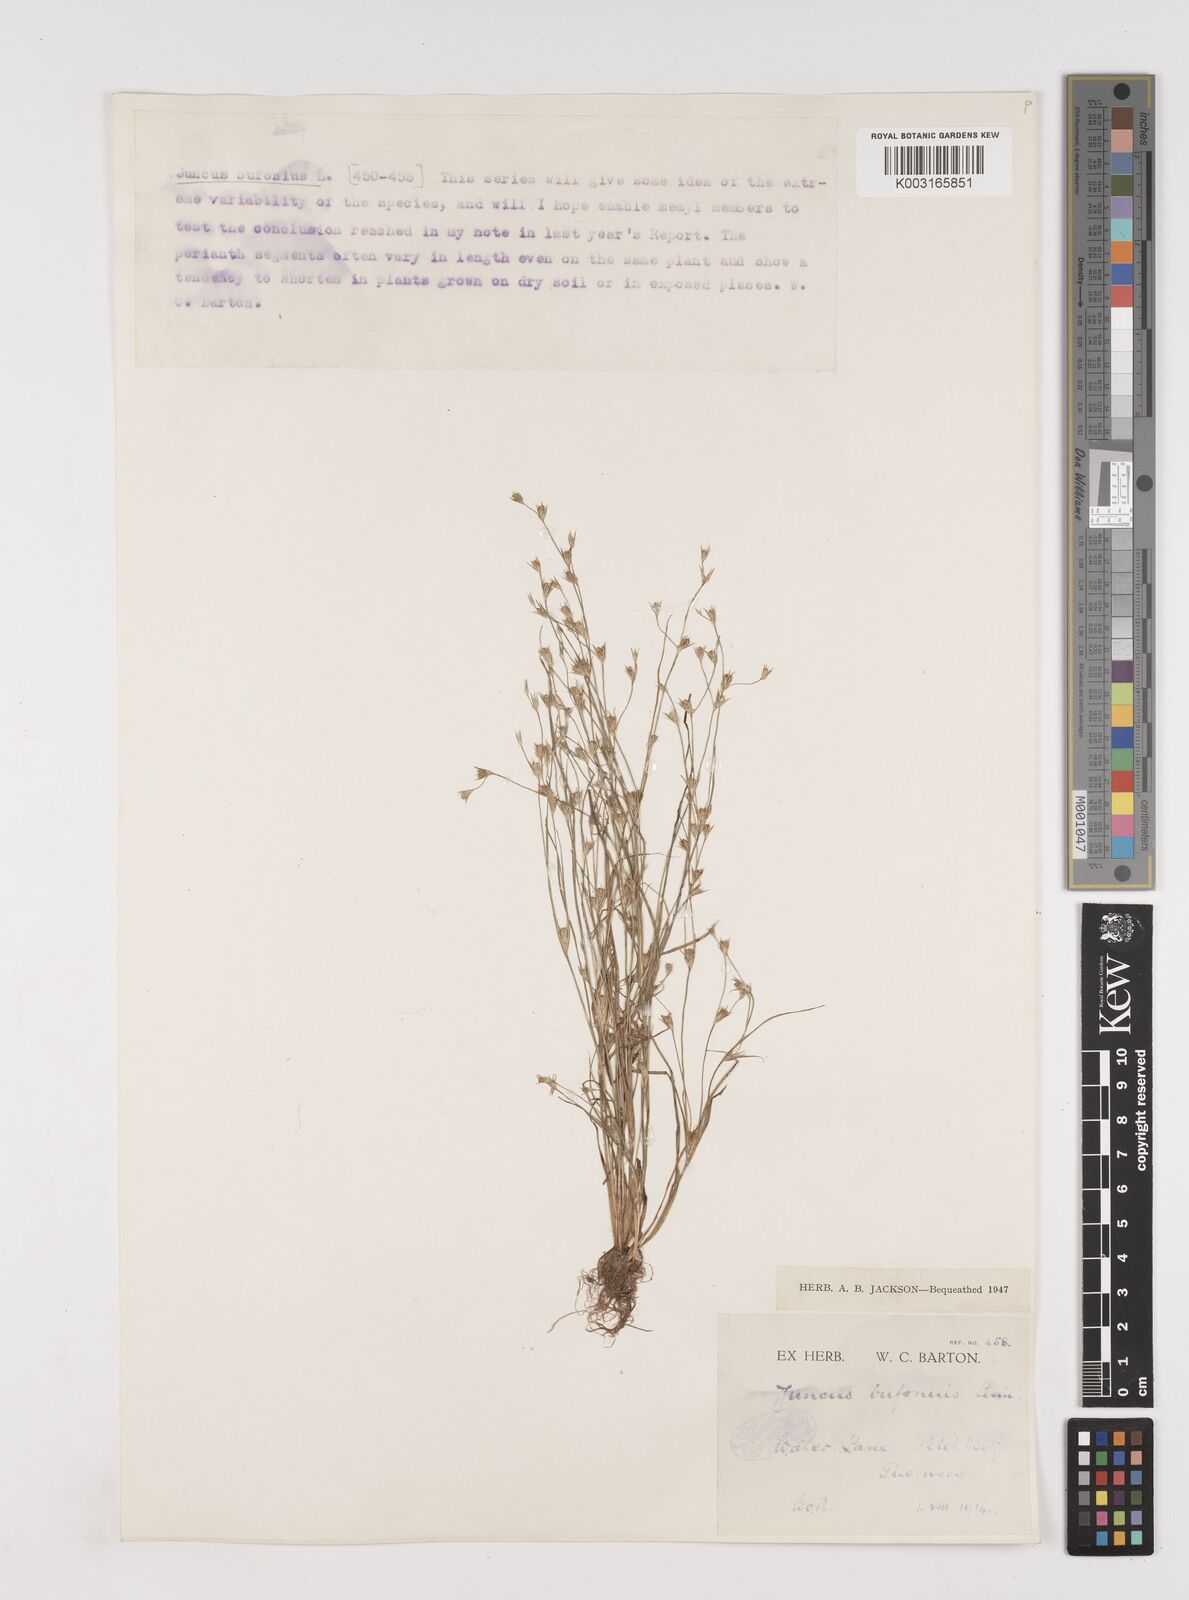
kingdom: Plantae
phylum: Tracheophyta
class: Liliopsida
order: Poales
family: Juncaceae
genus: Juncus
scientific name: Juncus bufonius
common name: Toad rush
